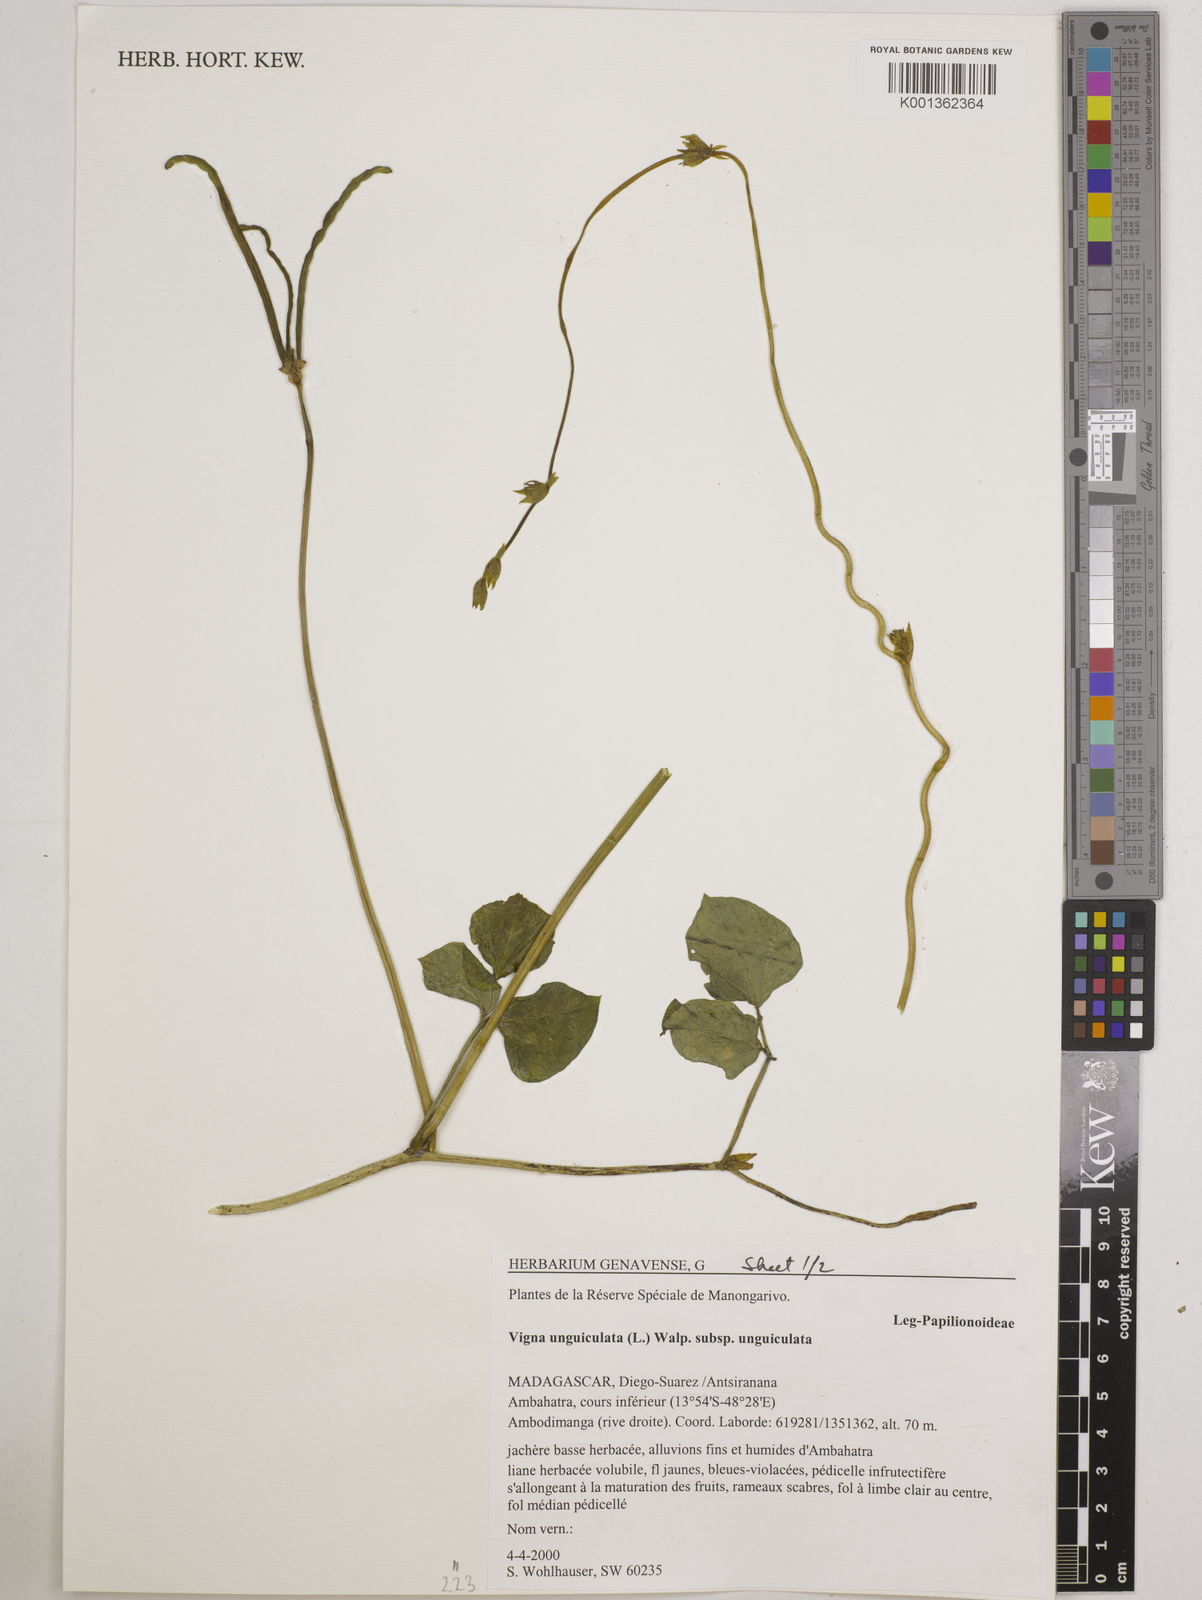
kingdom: Plantae
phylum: Tracheophyta
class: Magnoliopsida
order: Fabales
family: Fabaceae
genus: Vigna
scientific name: Vigna
